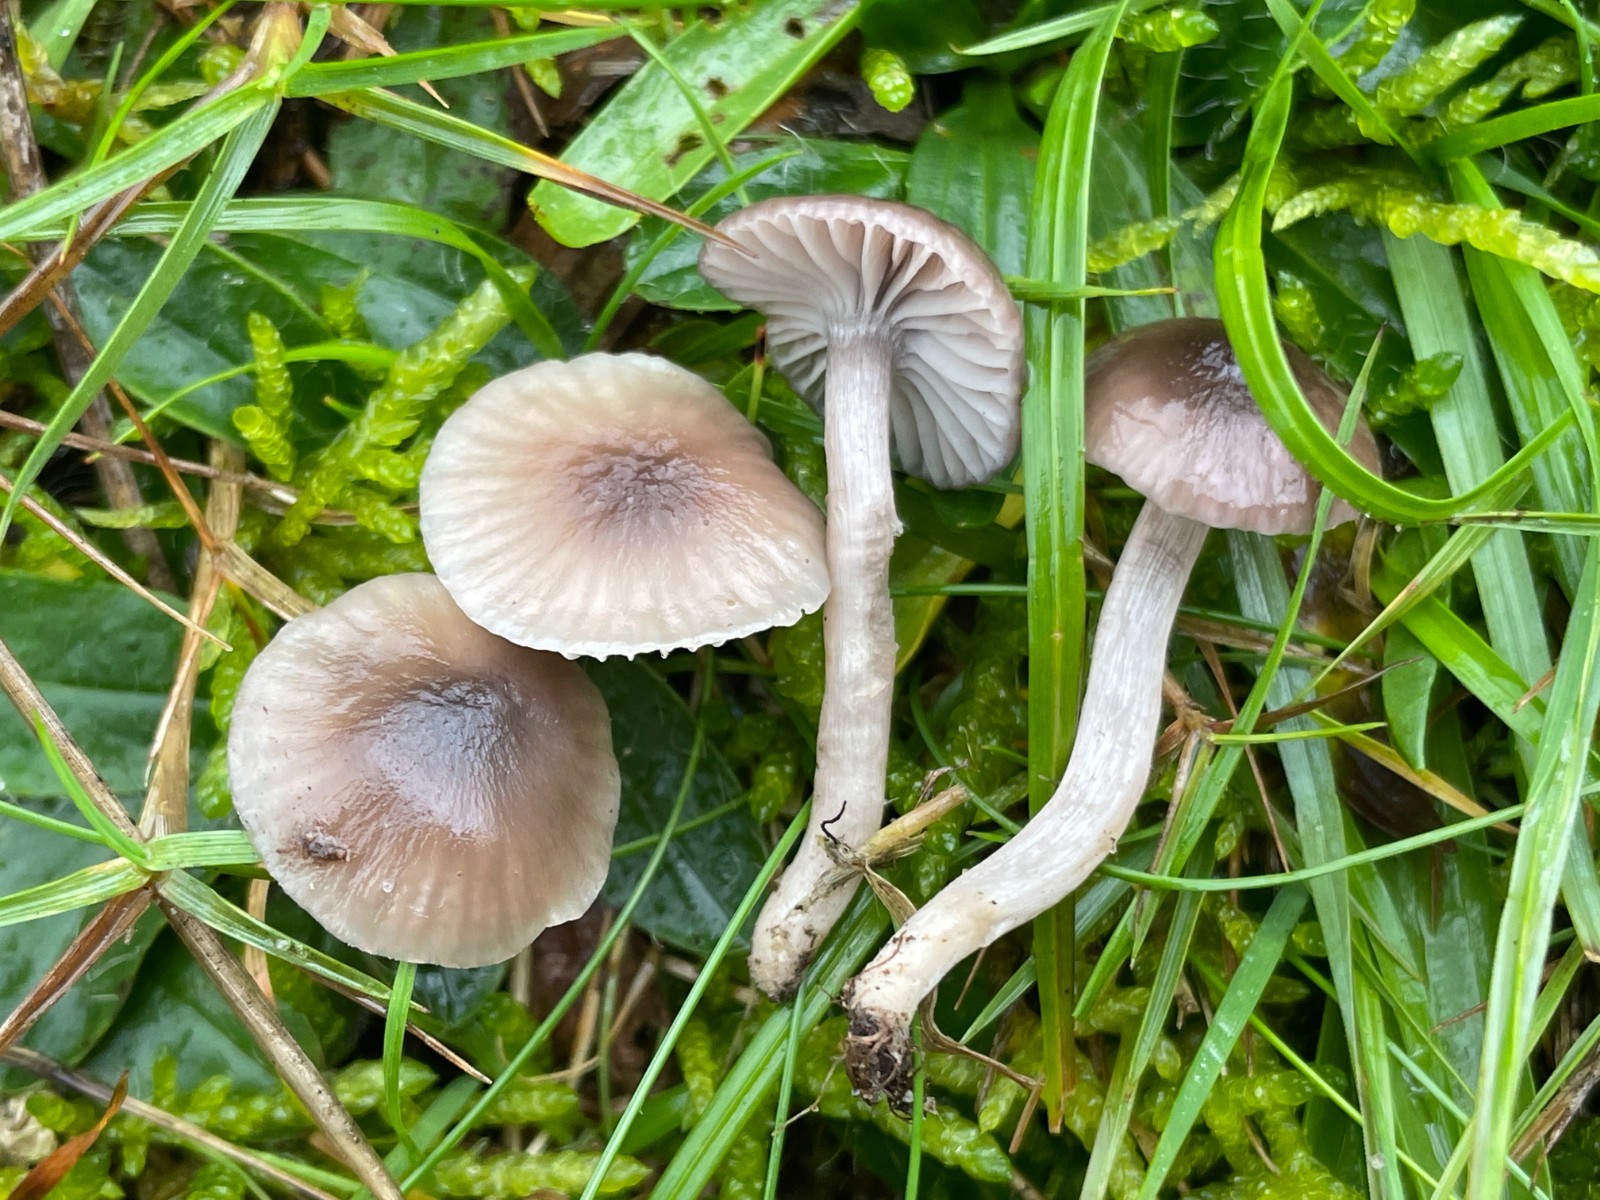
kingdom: Fungi
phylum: Basidiomycota
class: Agaricomycetes
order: Agaricales
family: Hygrophoraceae
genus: Cuphophyllus
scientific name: Cuphophyllus
